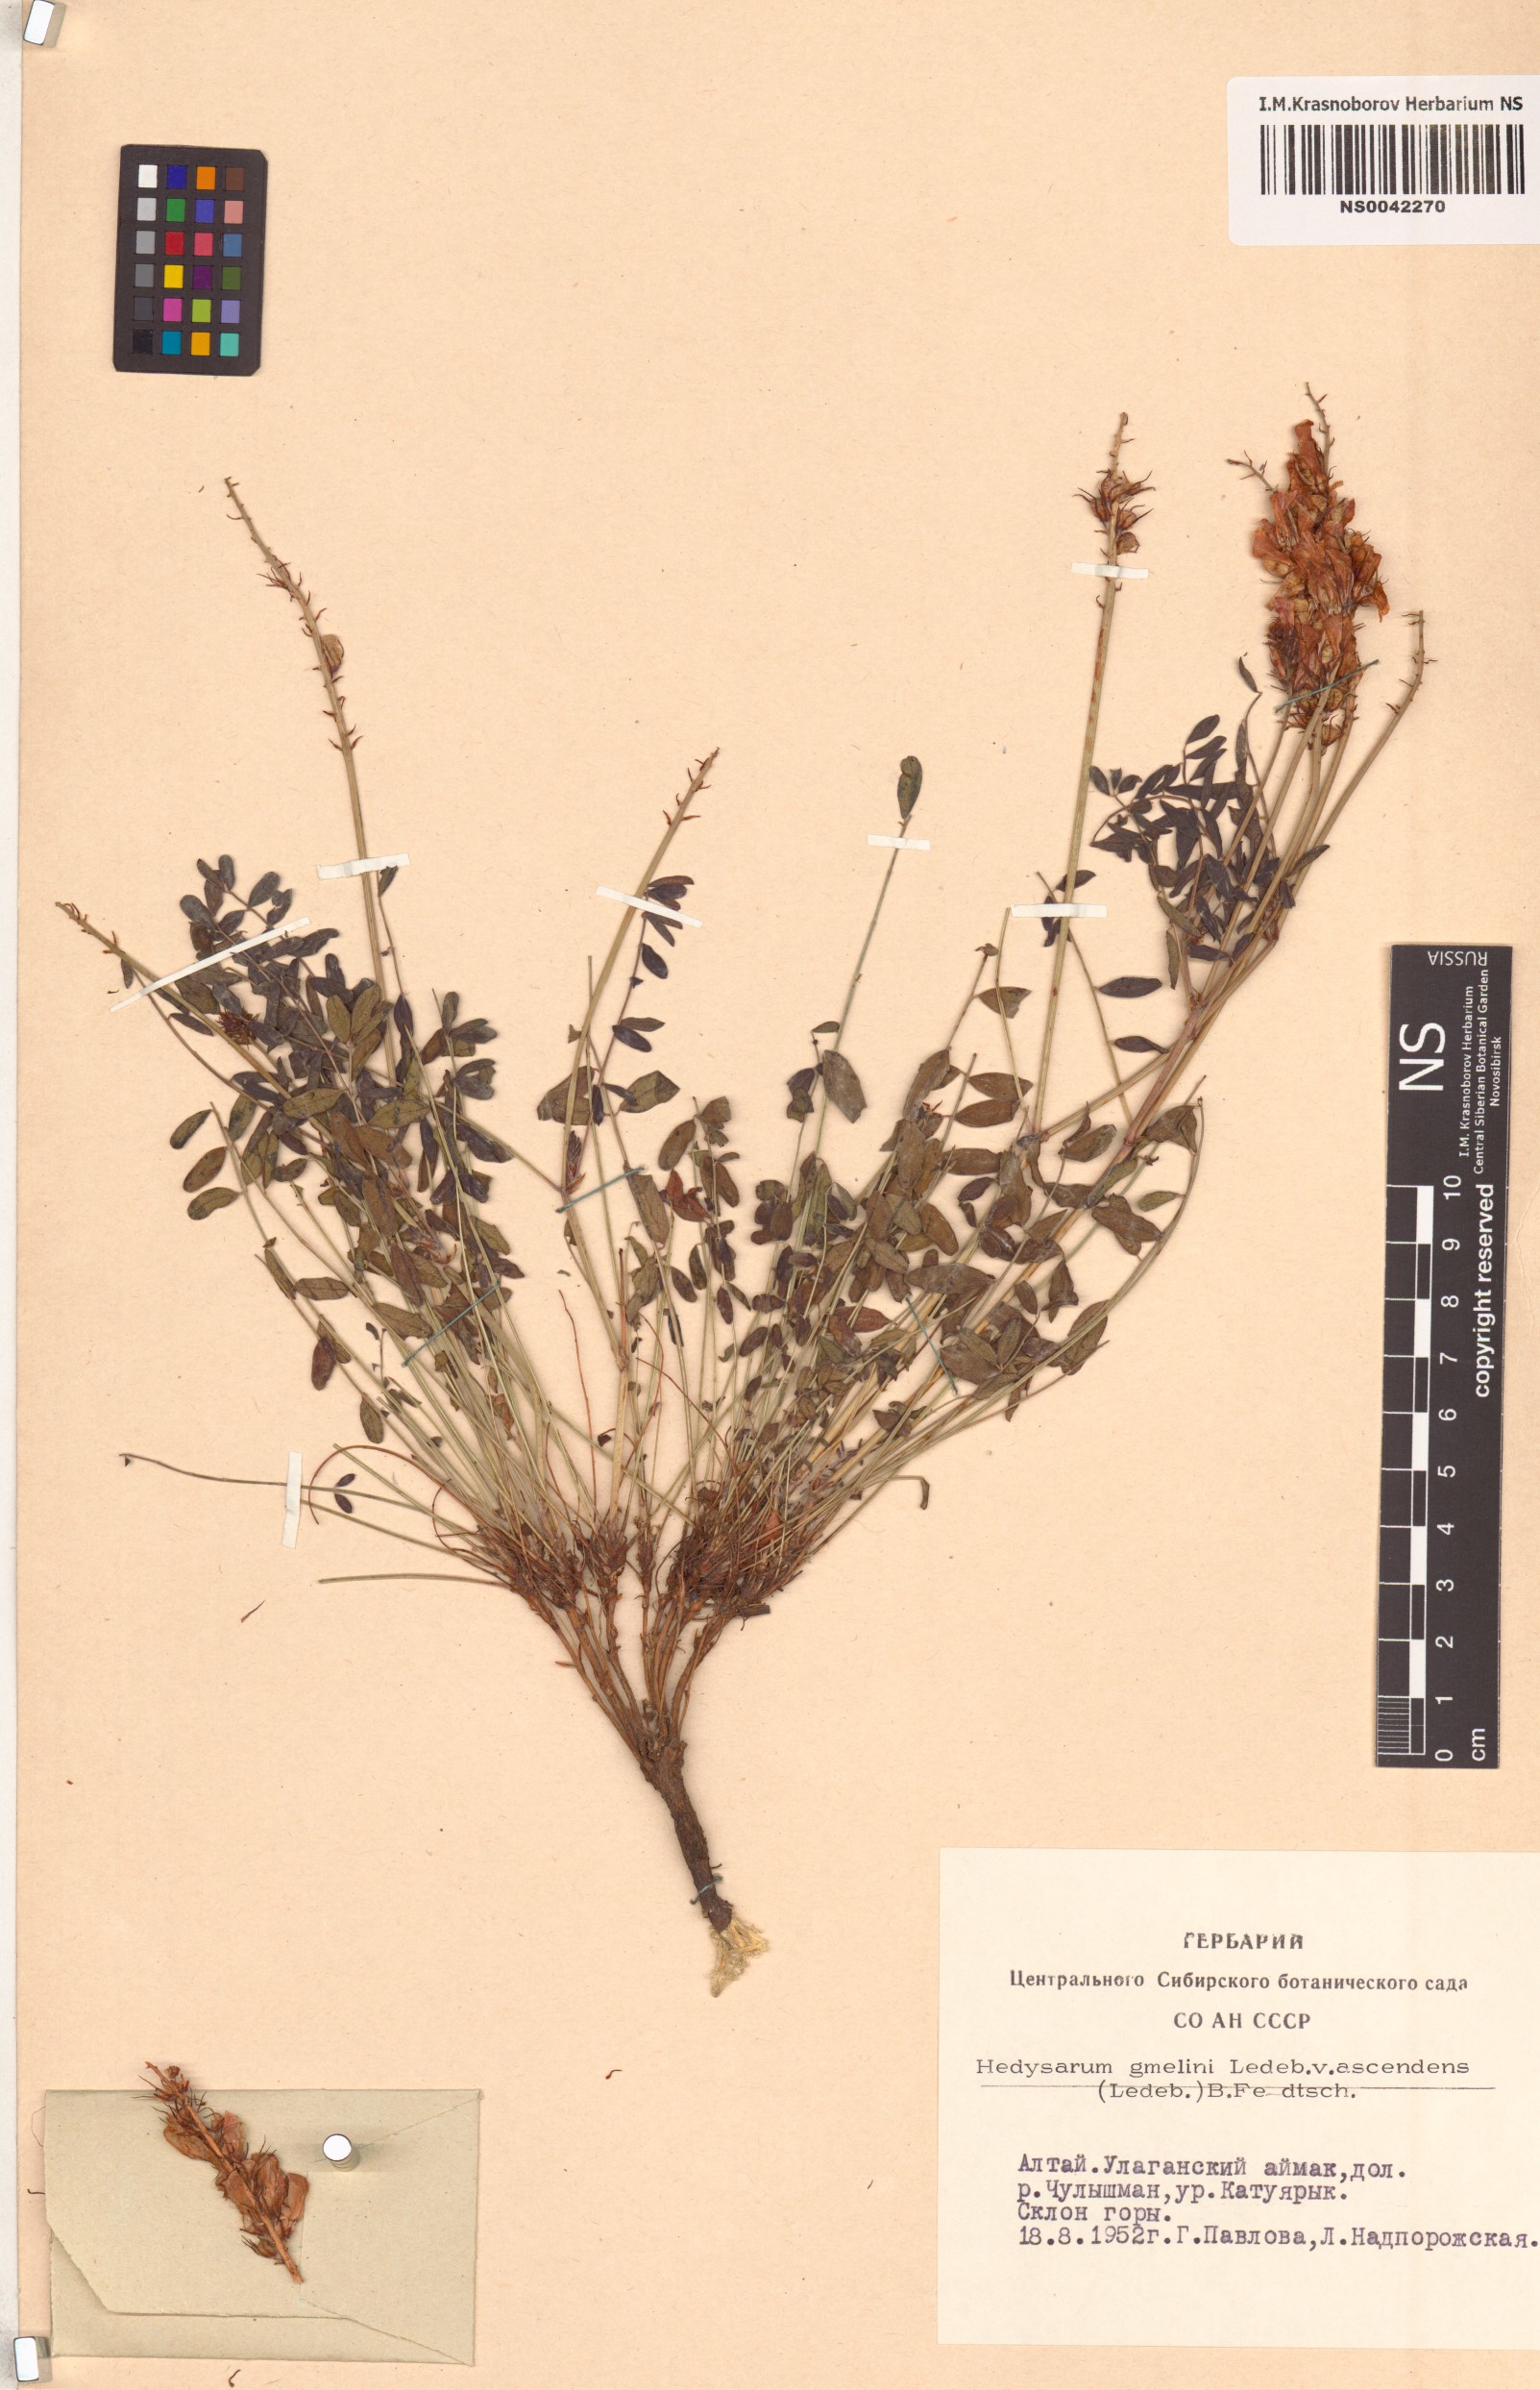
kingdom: Plantae
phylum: Tracheophyta
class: Magnoliopsida
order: Fabales
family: Fabaceae
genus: Hedysarum
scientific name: Hedysarum gmelinii
